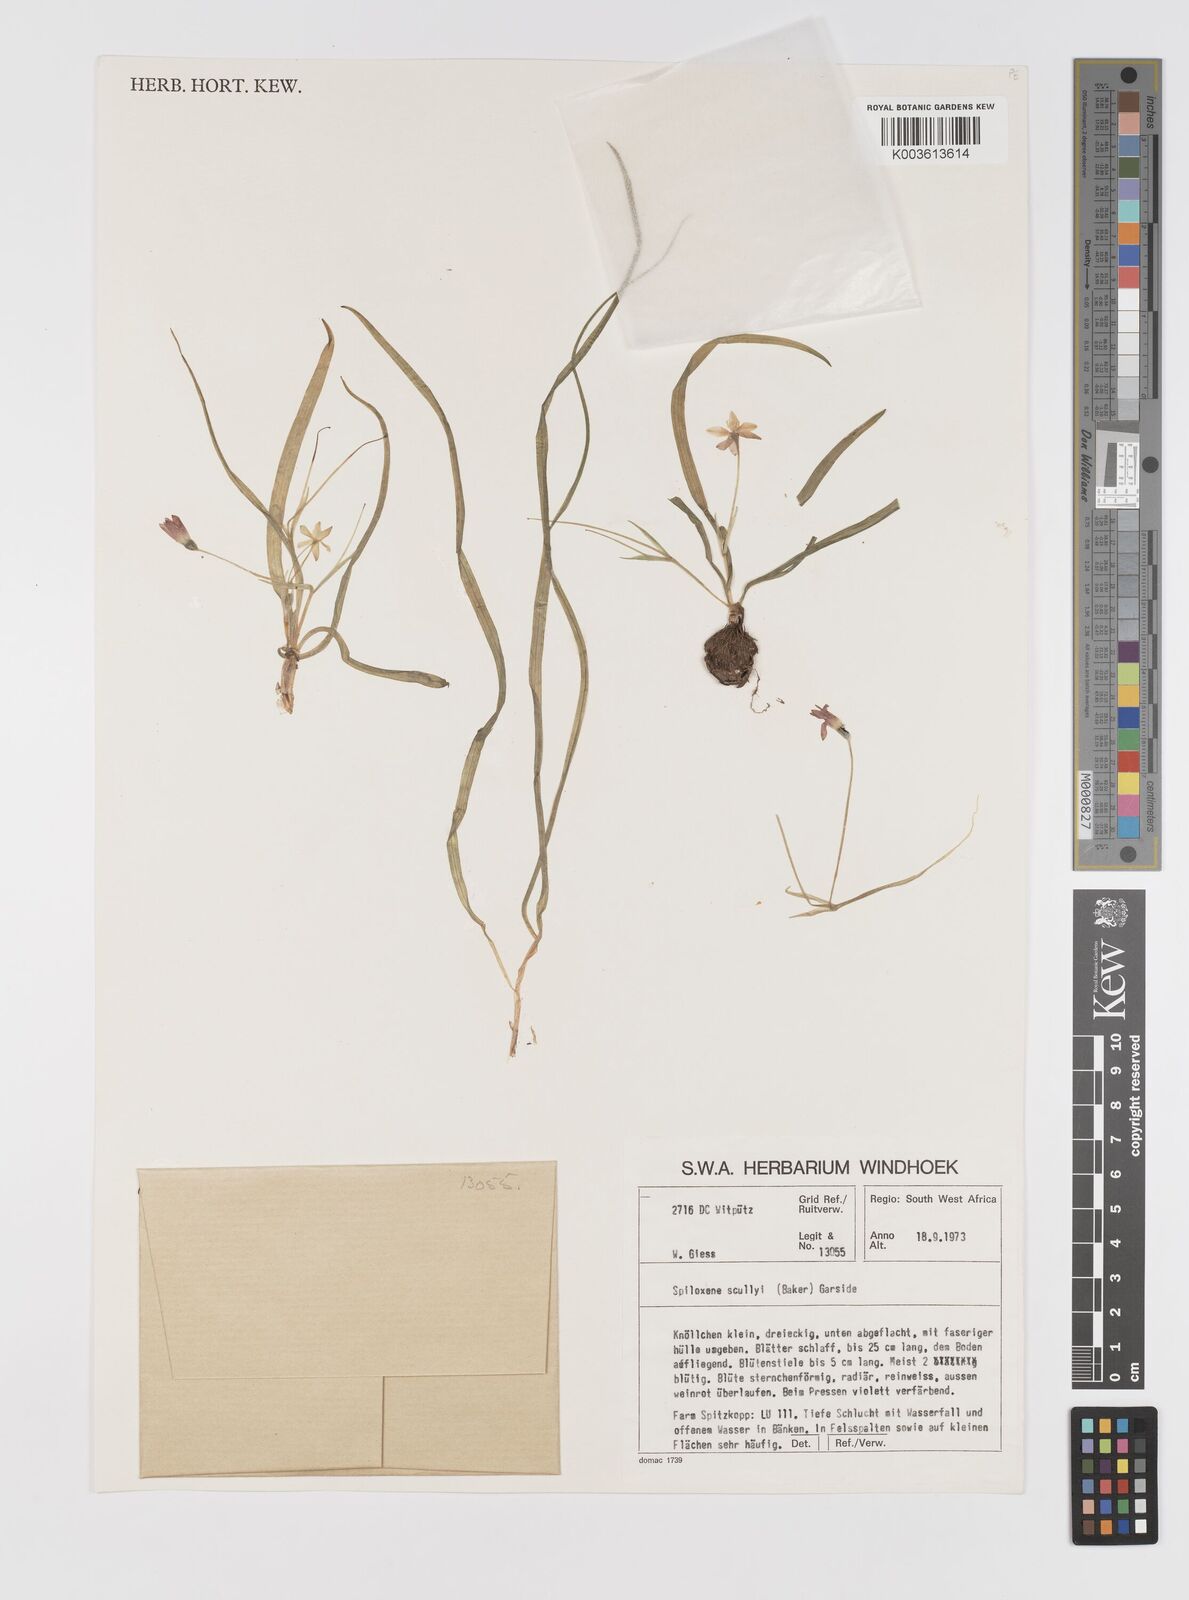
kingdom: Plantae
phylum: Tracheophyta
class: Liliopsida
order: Asparagales
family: Hypoxidaceae
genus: Pauridia
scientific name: Pauridia scullyi
